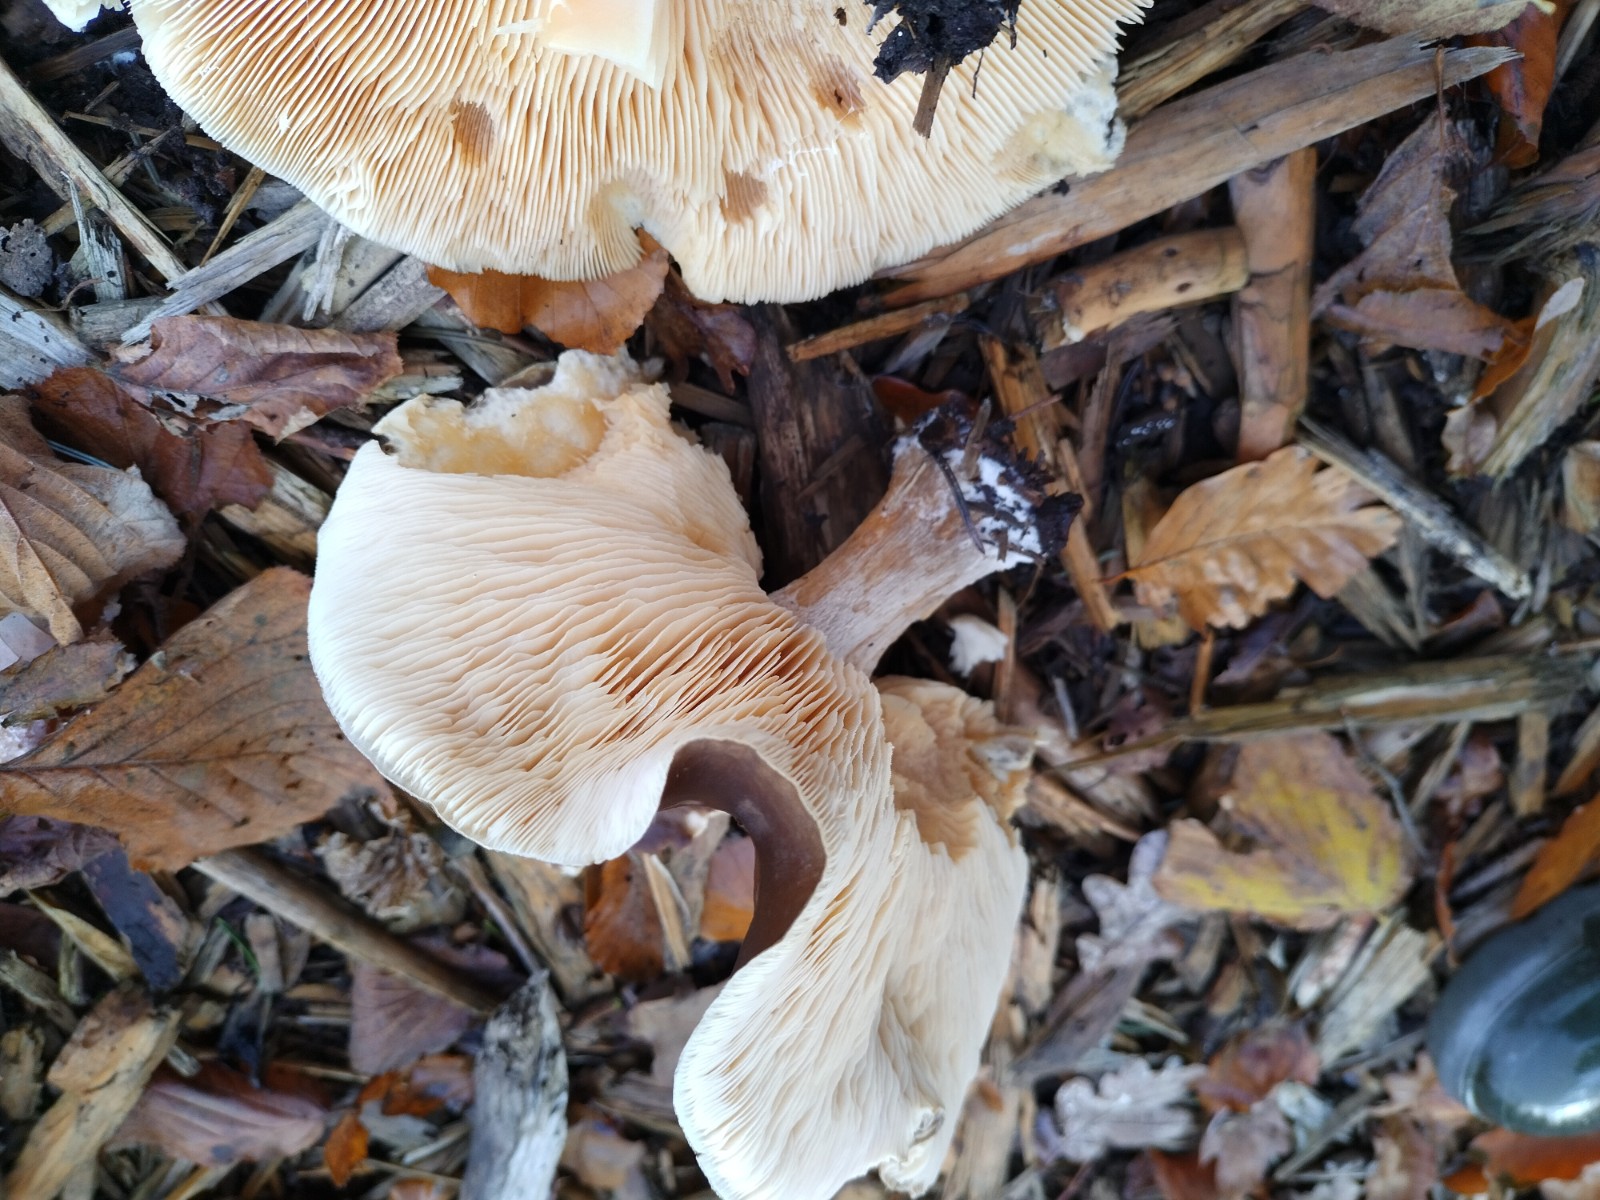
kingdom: Fungi
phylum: Basidiomycota
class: Agaricomycetes
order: Agaricales
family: Tricholomataceae
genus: Melanoleuca
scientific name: Melanoleuca cognata
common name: gyldengrå munkehat
